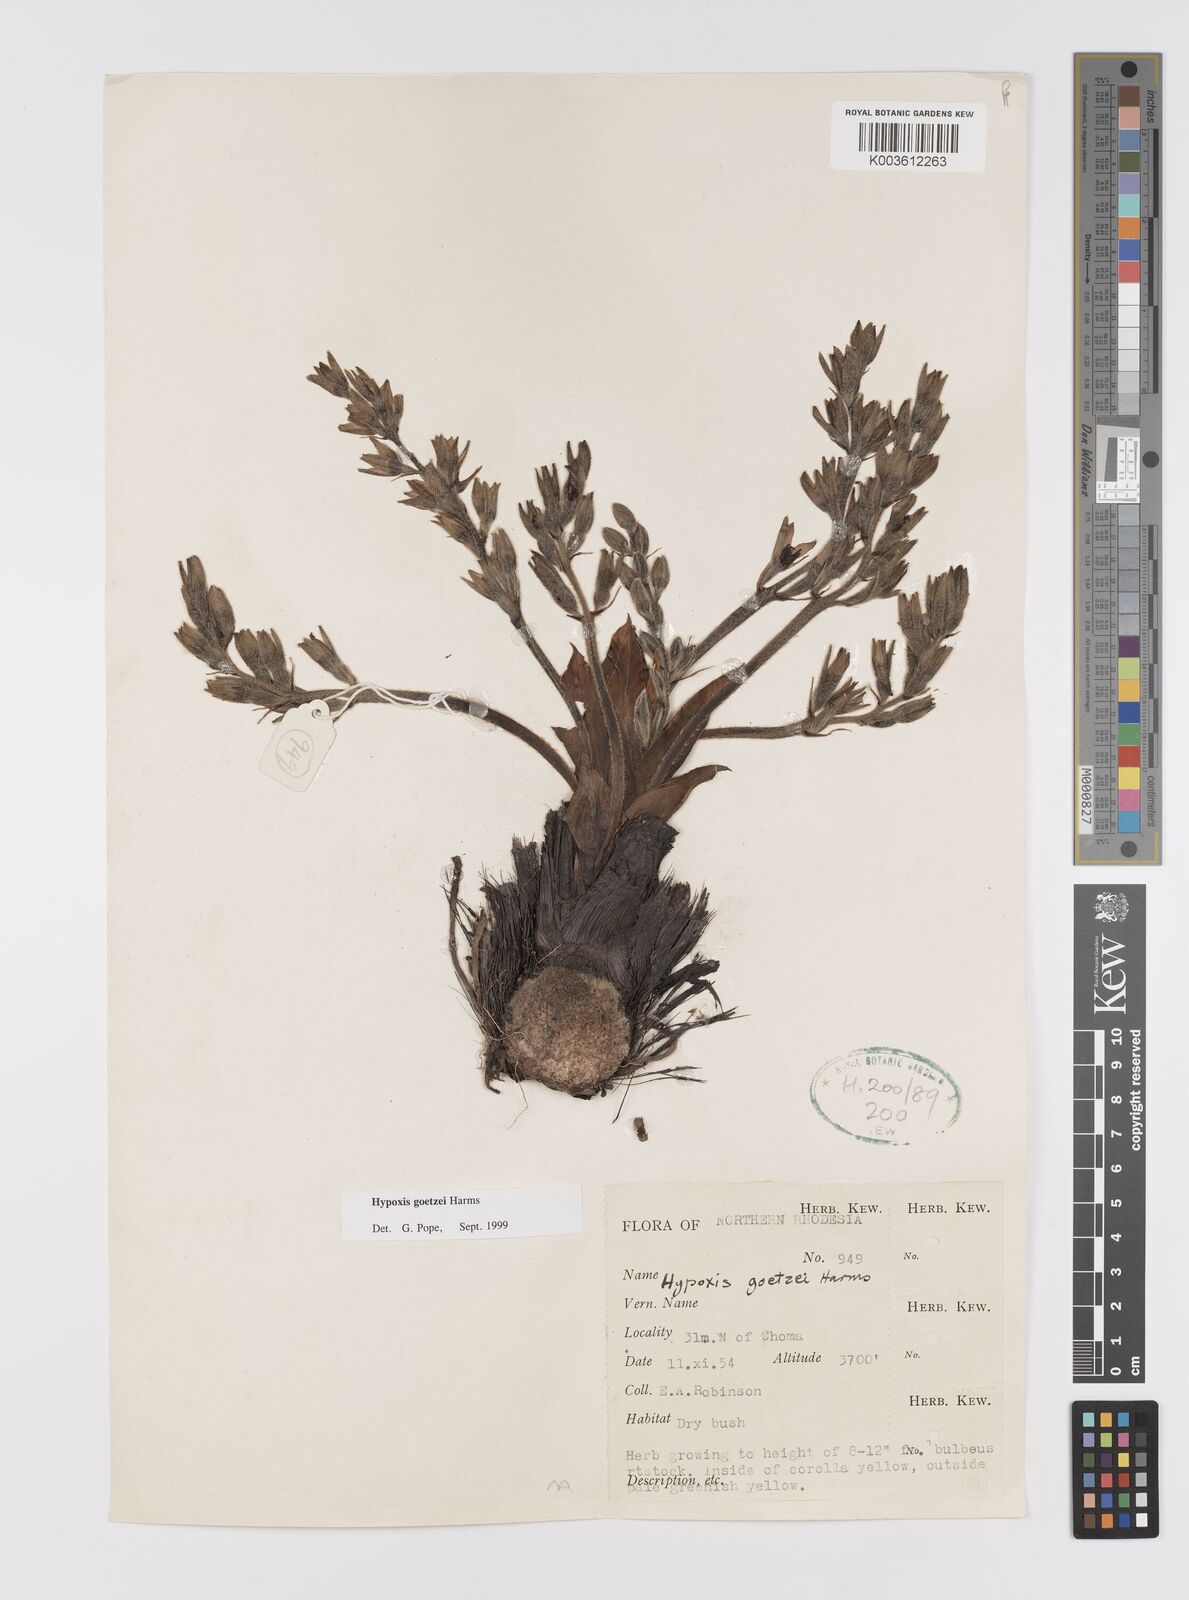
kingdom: Plantae
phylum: Tracheophyta
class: Liliopsida
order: Asparagales
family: Hypoxidaceae
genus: Hypoxis
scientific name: Hypoxis goetzei
